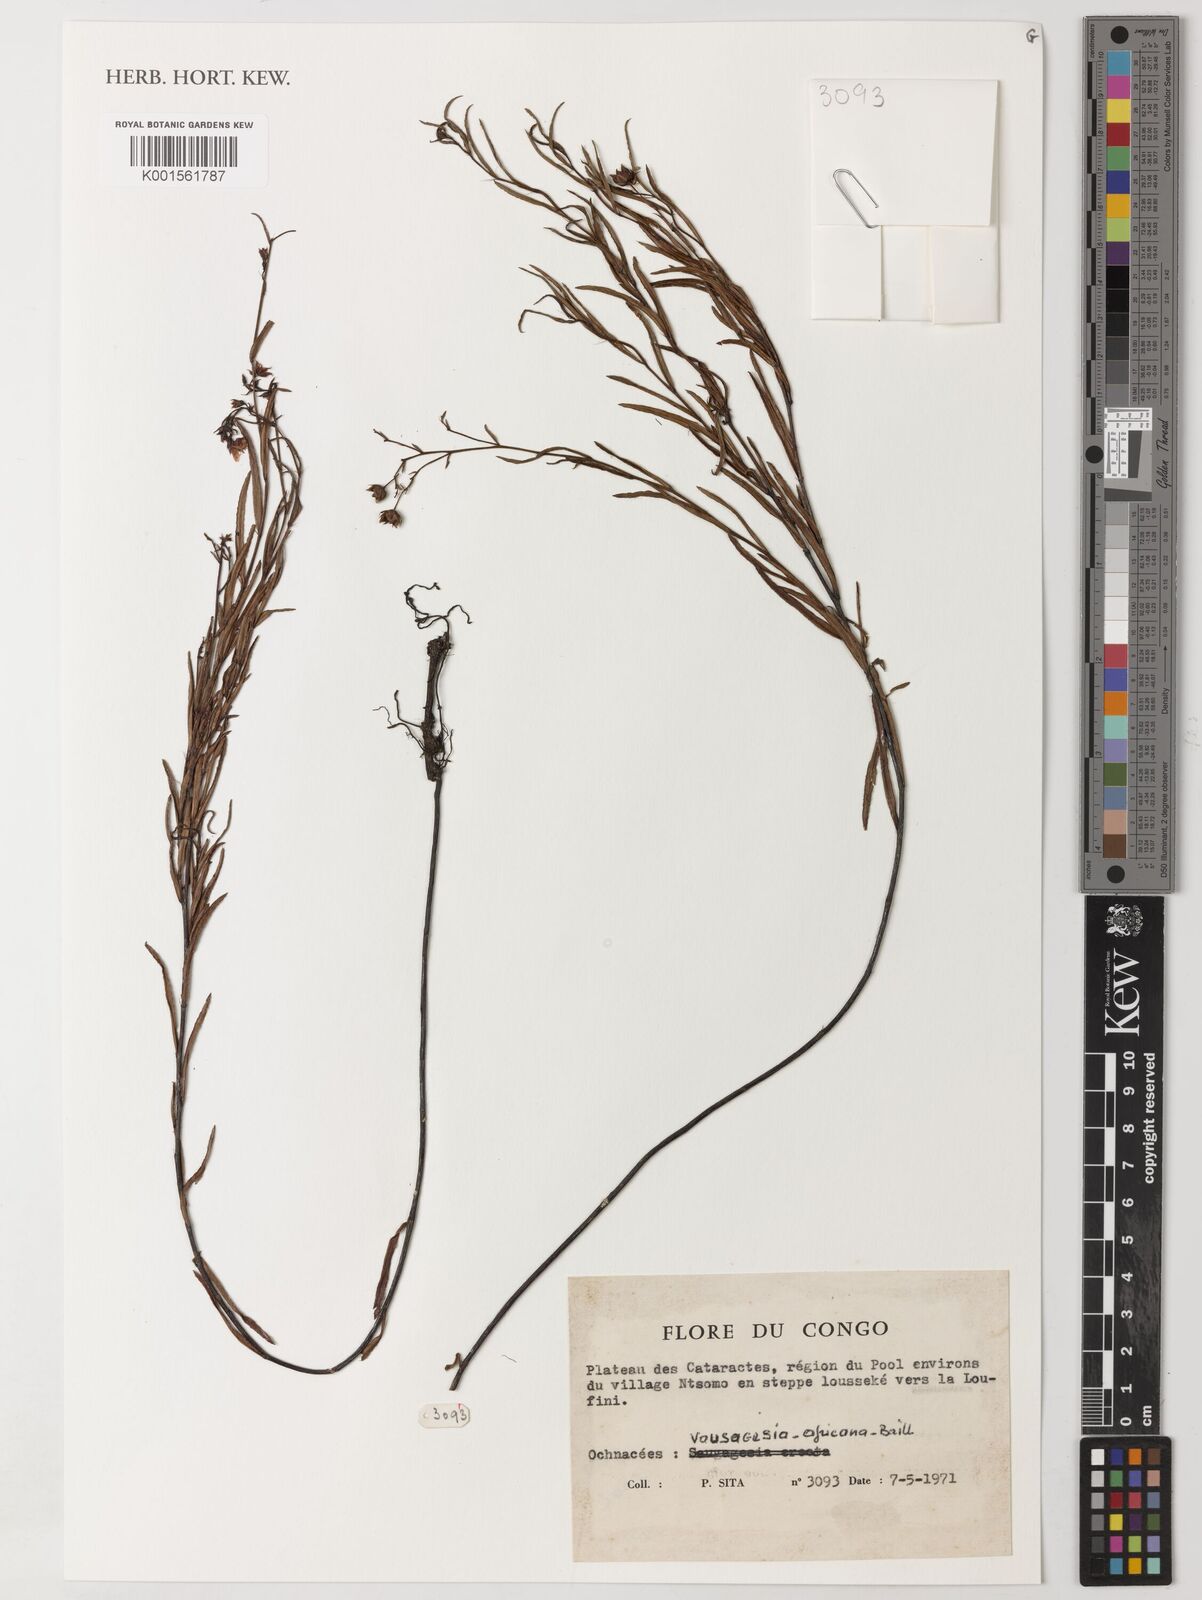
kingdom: Plantae
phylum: Tracheophyta
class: Magnoliopsida
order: Malpighiales
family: Ochnaceae
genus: Sauvagesia
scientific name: Sauvagesia africana
